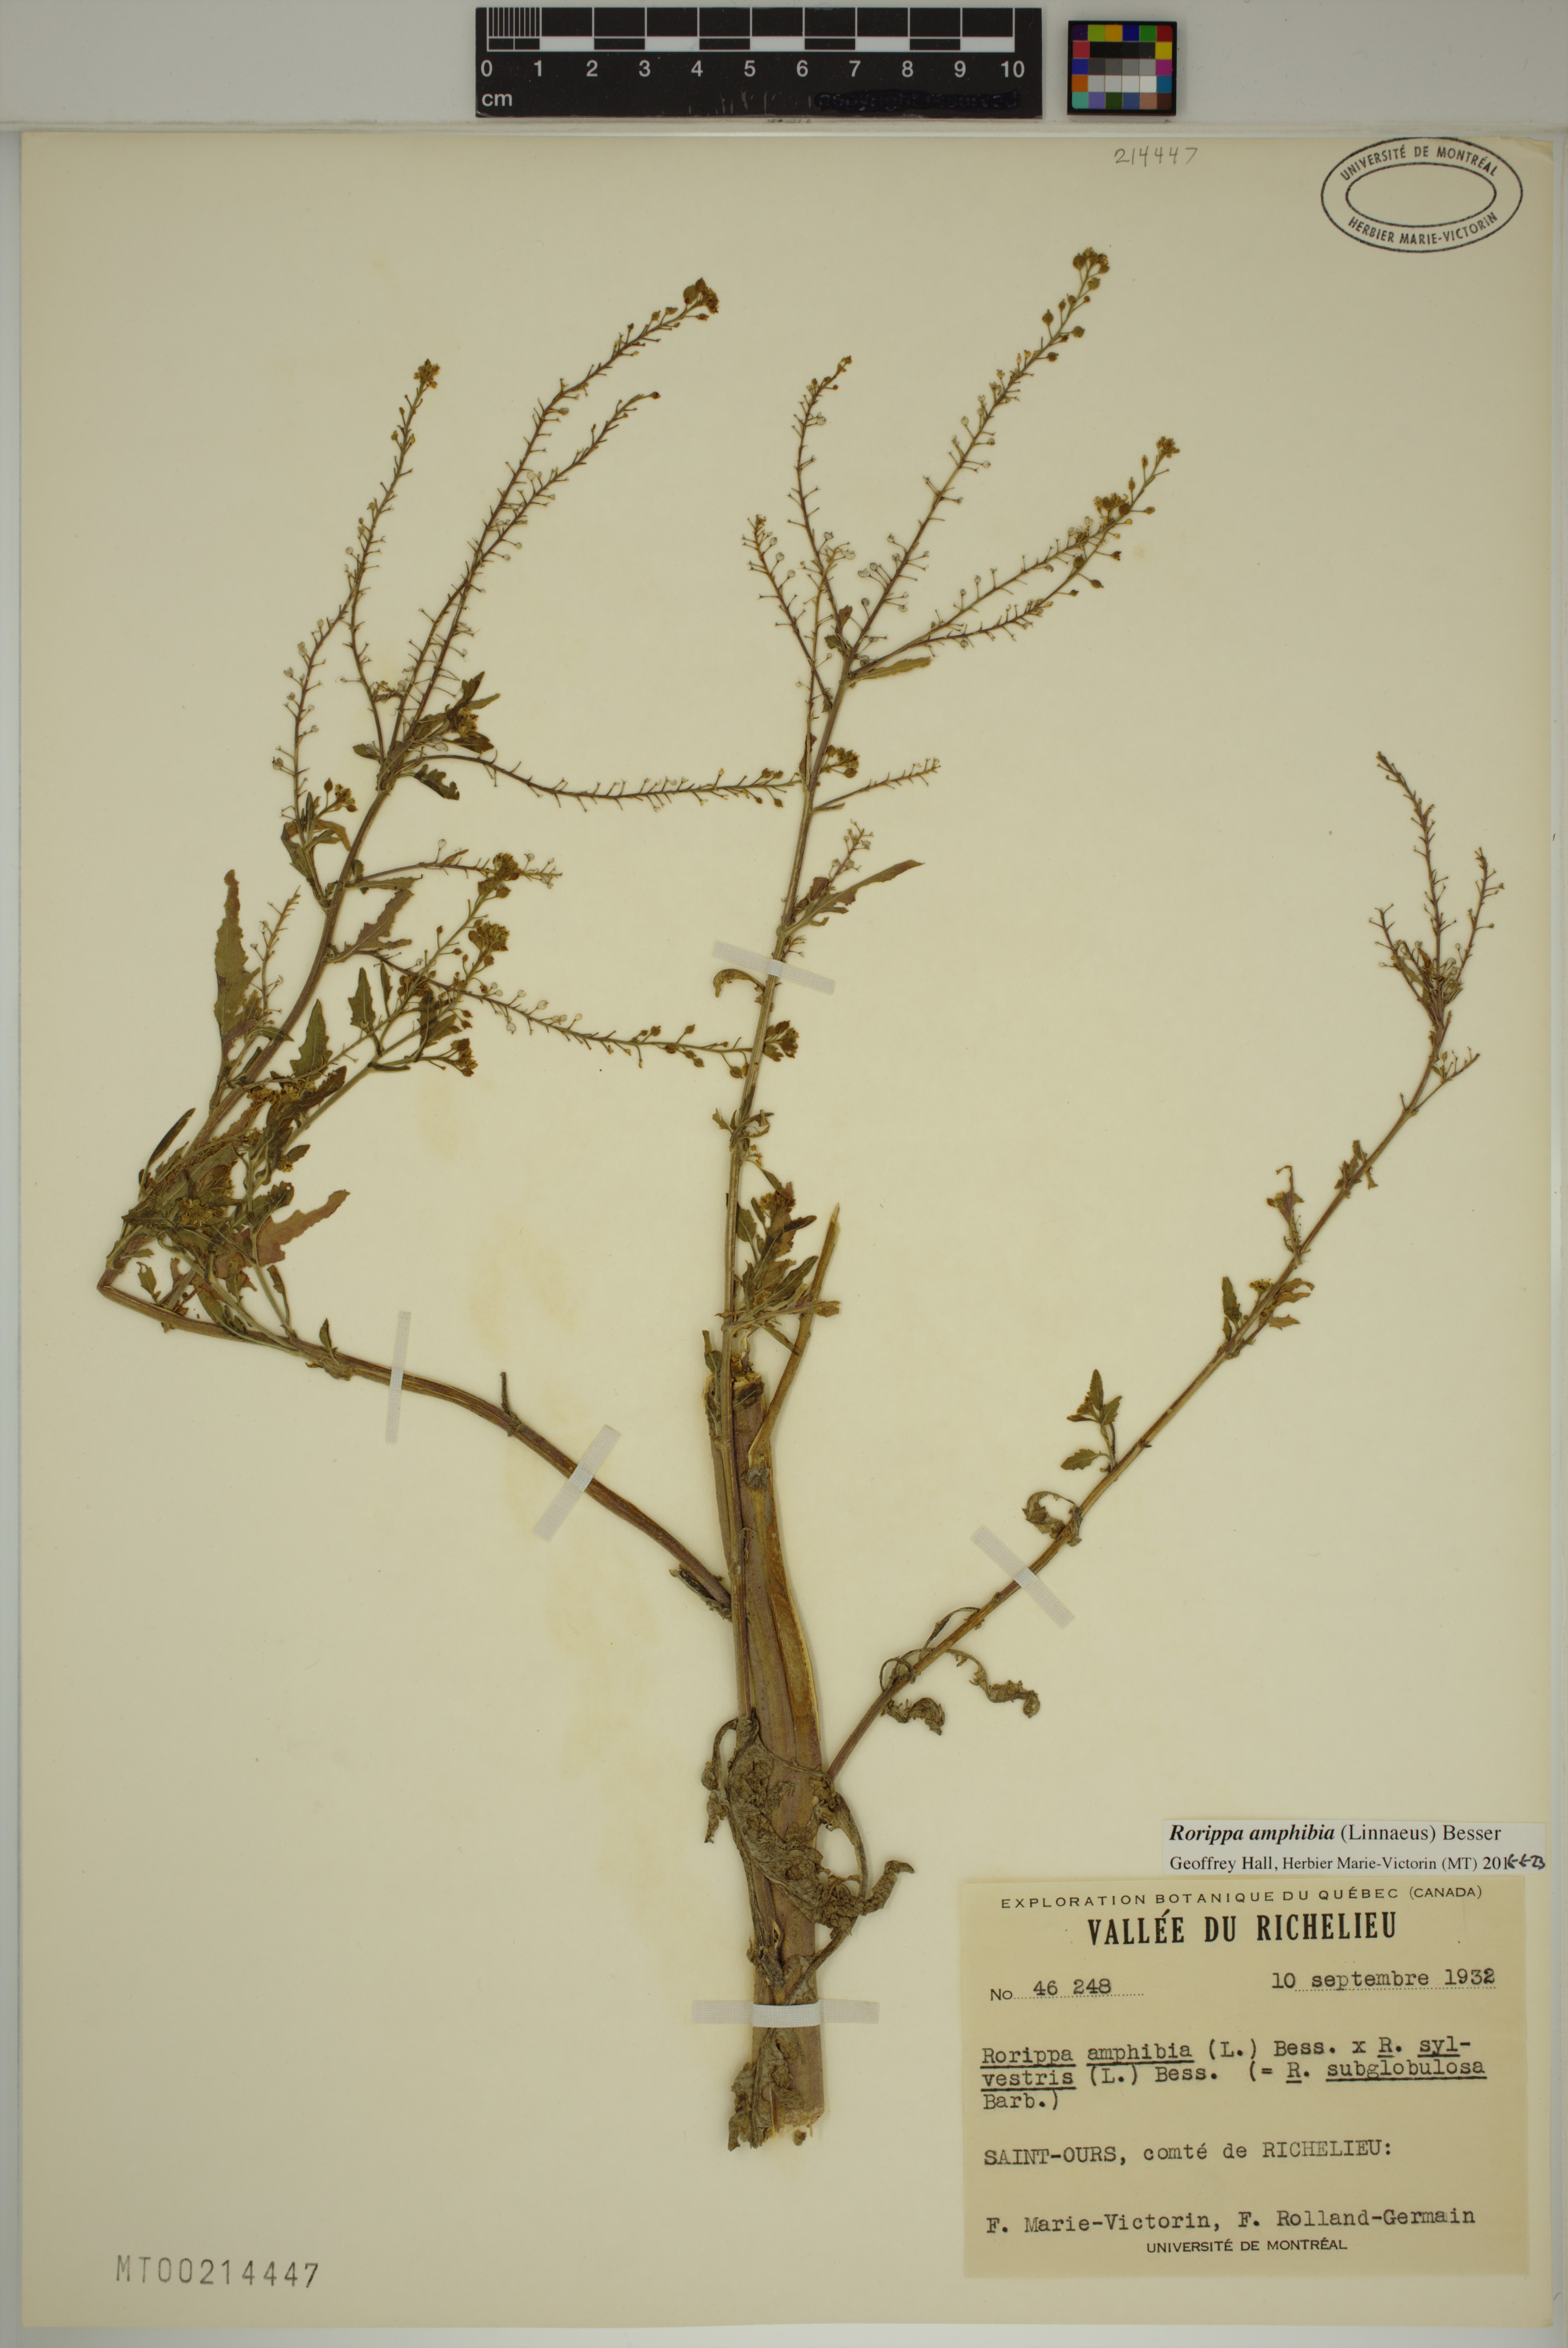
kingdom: Plantae
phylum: Tracheophyta
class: Magnoliopsida
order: Brassicales
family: Brassicaceae
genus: Rorippa
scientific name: Rorippa amphibia
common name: Great yellow-cress
